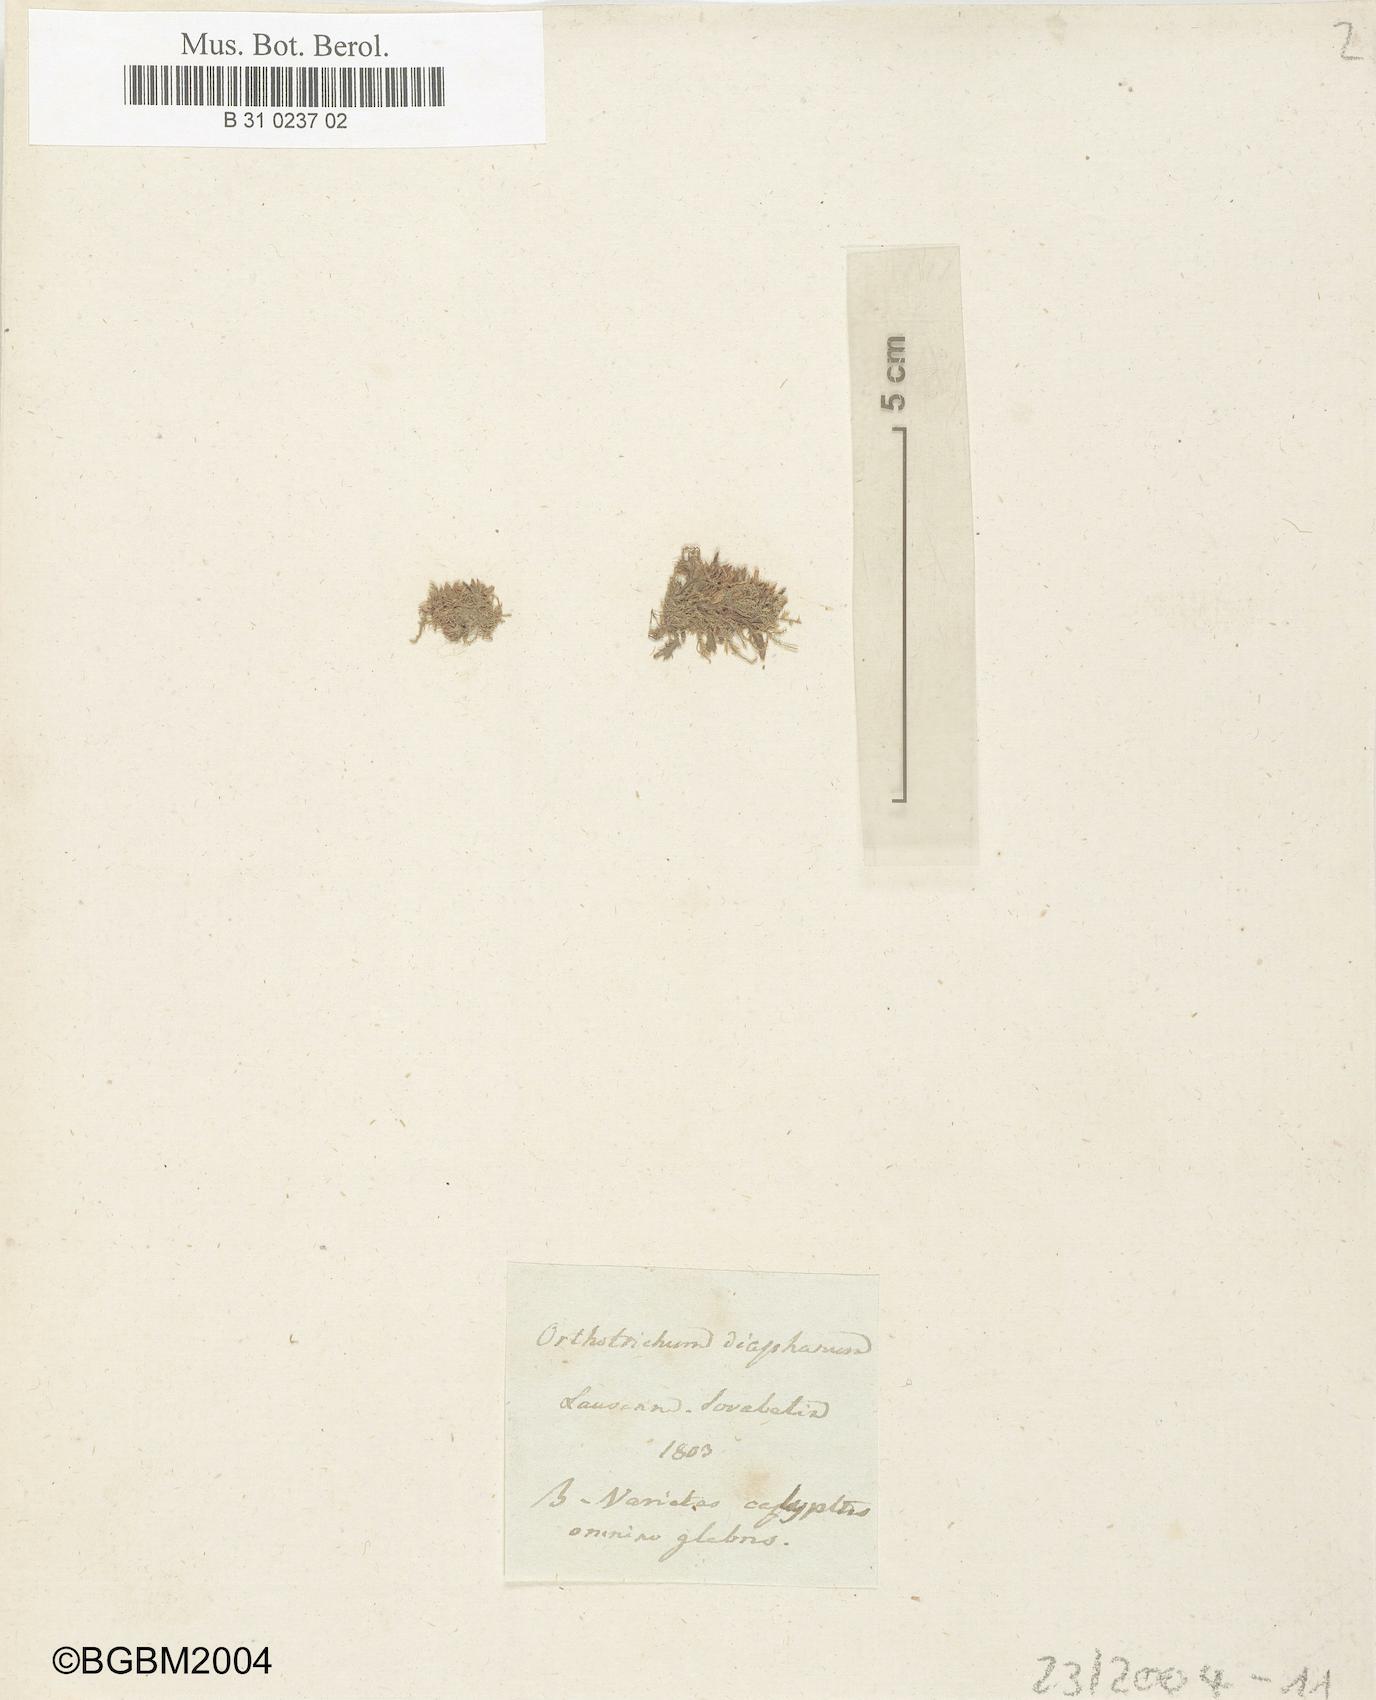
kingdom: Plantae
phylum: Bryophyta
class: Bryopsida
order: Orthotrichales
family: Orthotrichaceae
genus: Orthotrichum
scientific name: Orthotrichum diaphanum
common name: White-tipped bristle-moss
